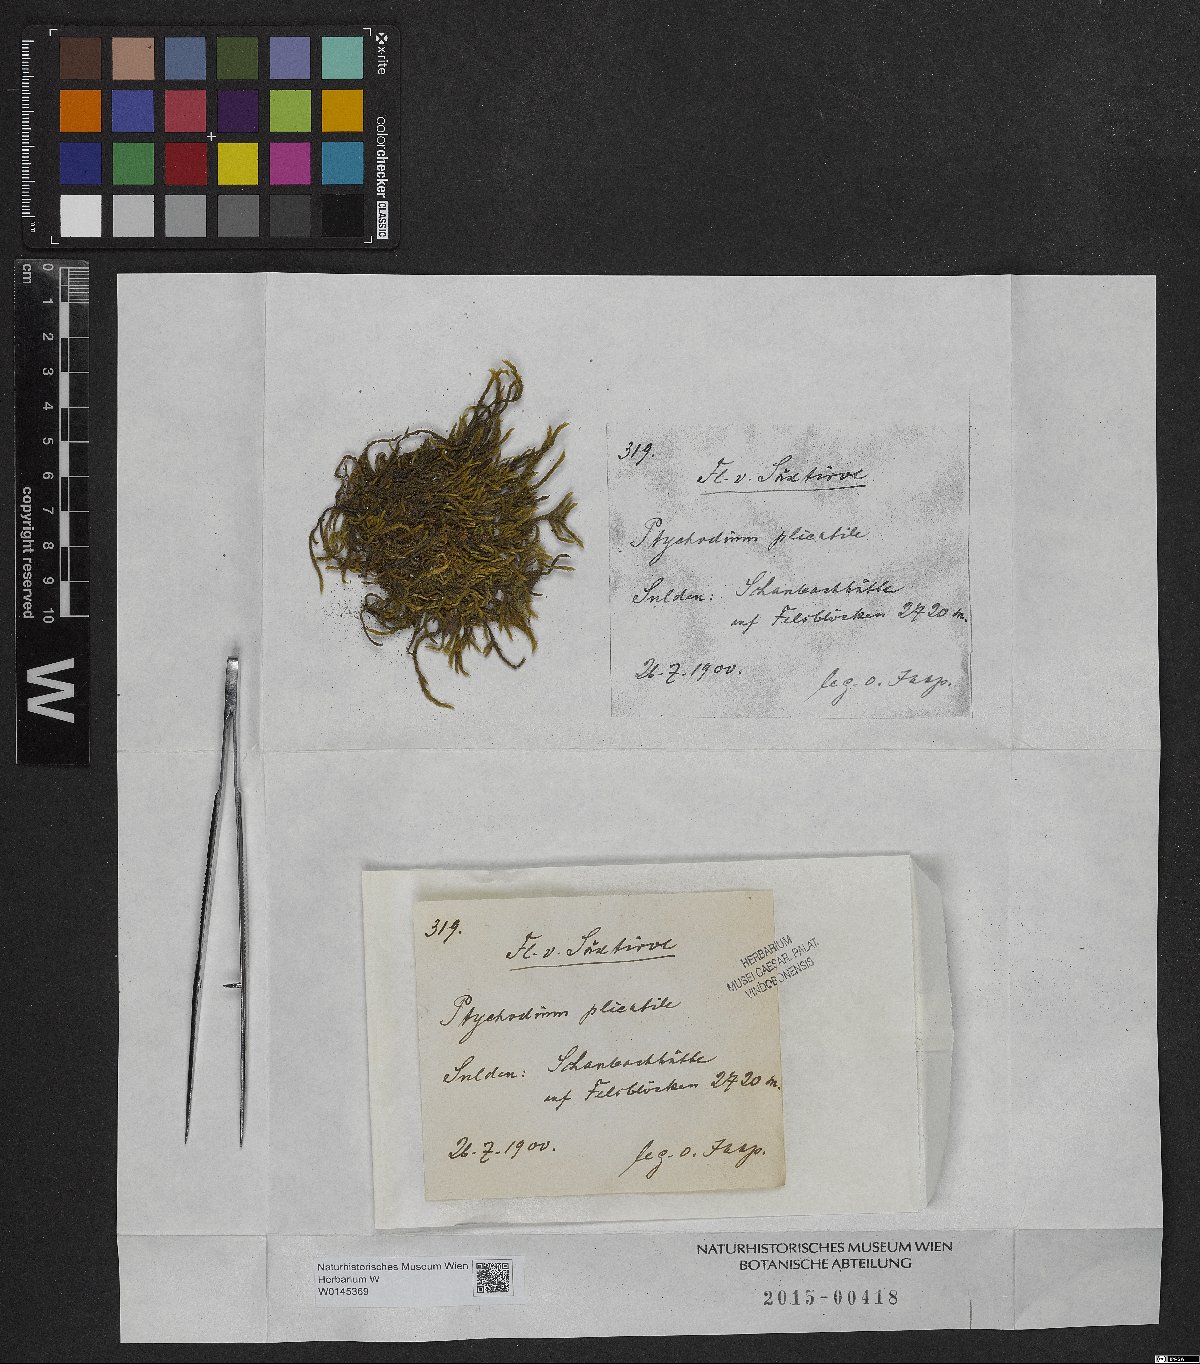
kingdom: Plantae
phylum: Bryophyta
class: Bryopsida
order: Hypnales
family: Brachytheciaceae
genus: Palamocladium
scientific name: Palamocladium leskeoides
